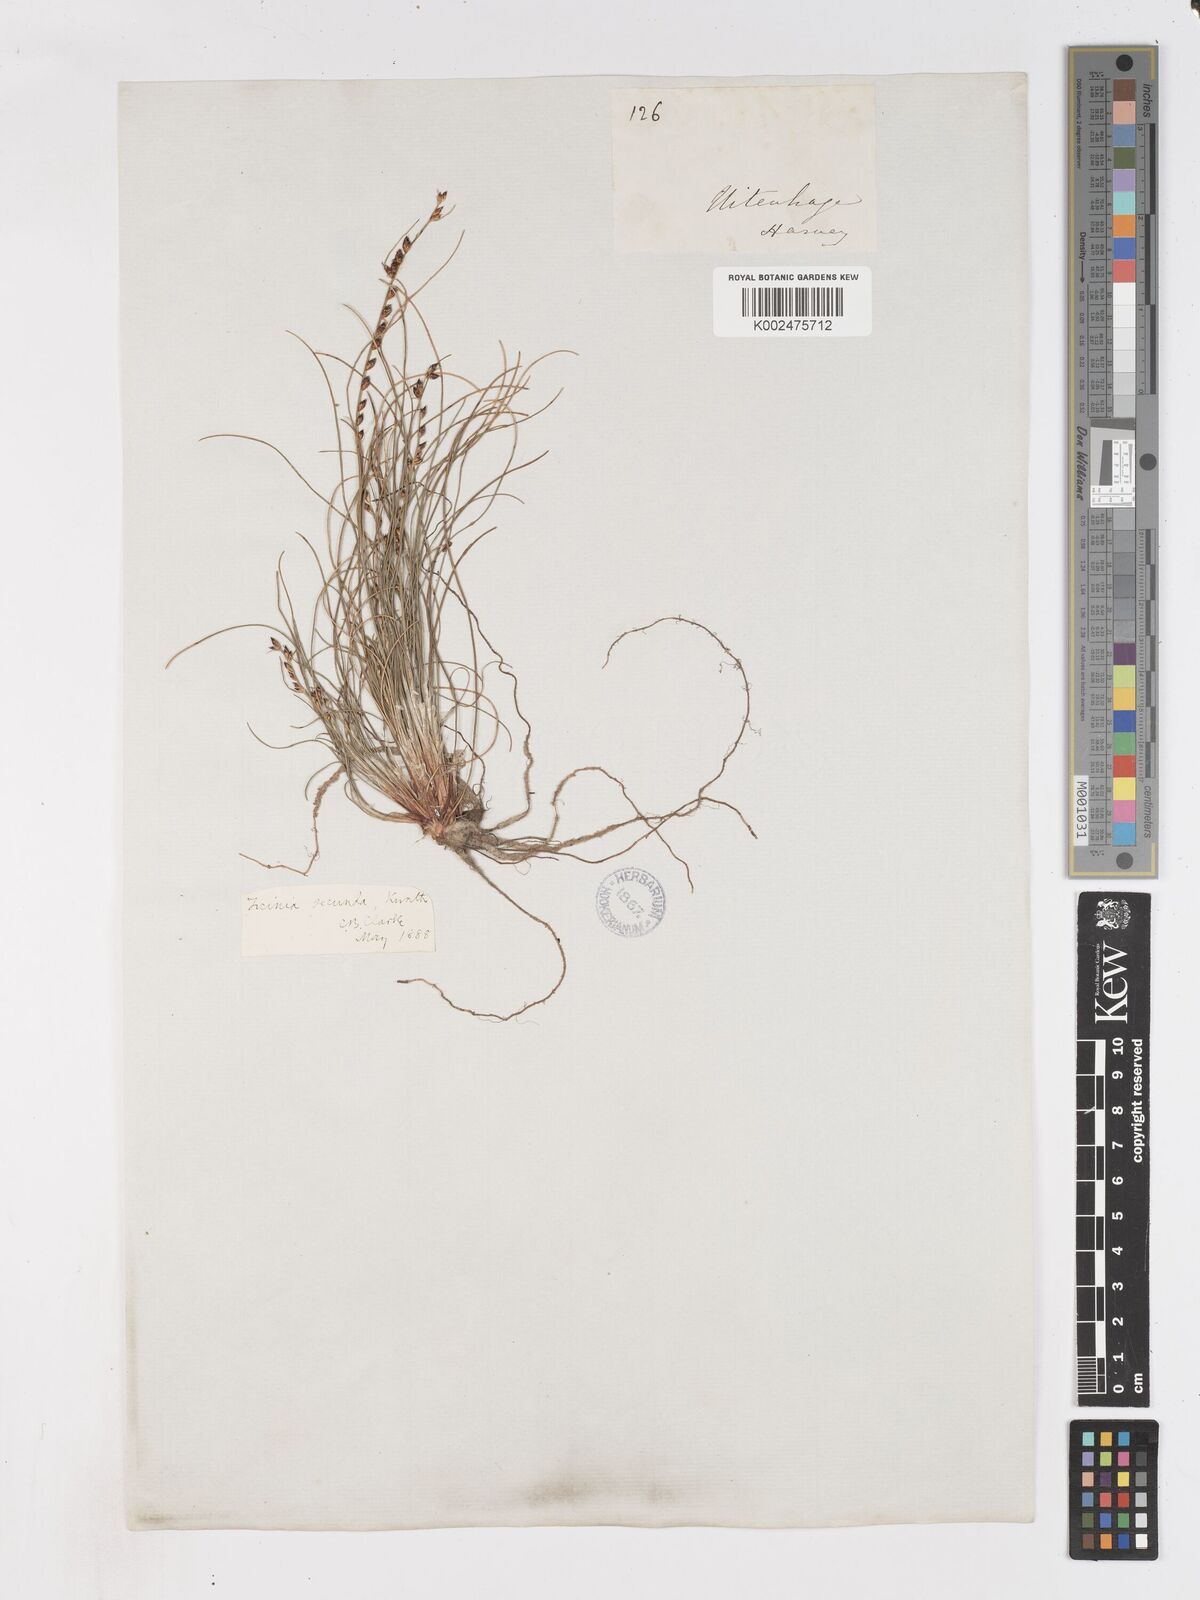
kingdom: Plantae
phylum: Tracheophyta
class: Liliopsida
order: Poales
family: Cyperaceae
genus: Ficinia
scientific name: Ficinia secunda
